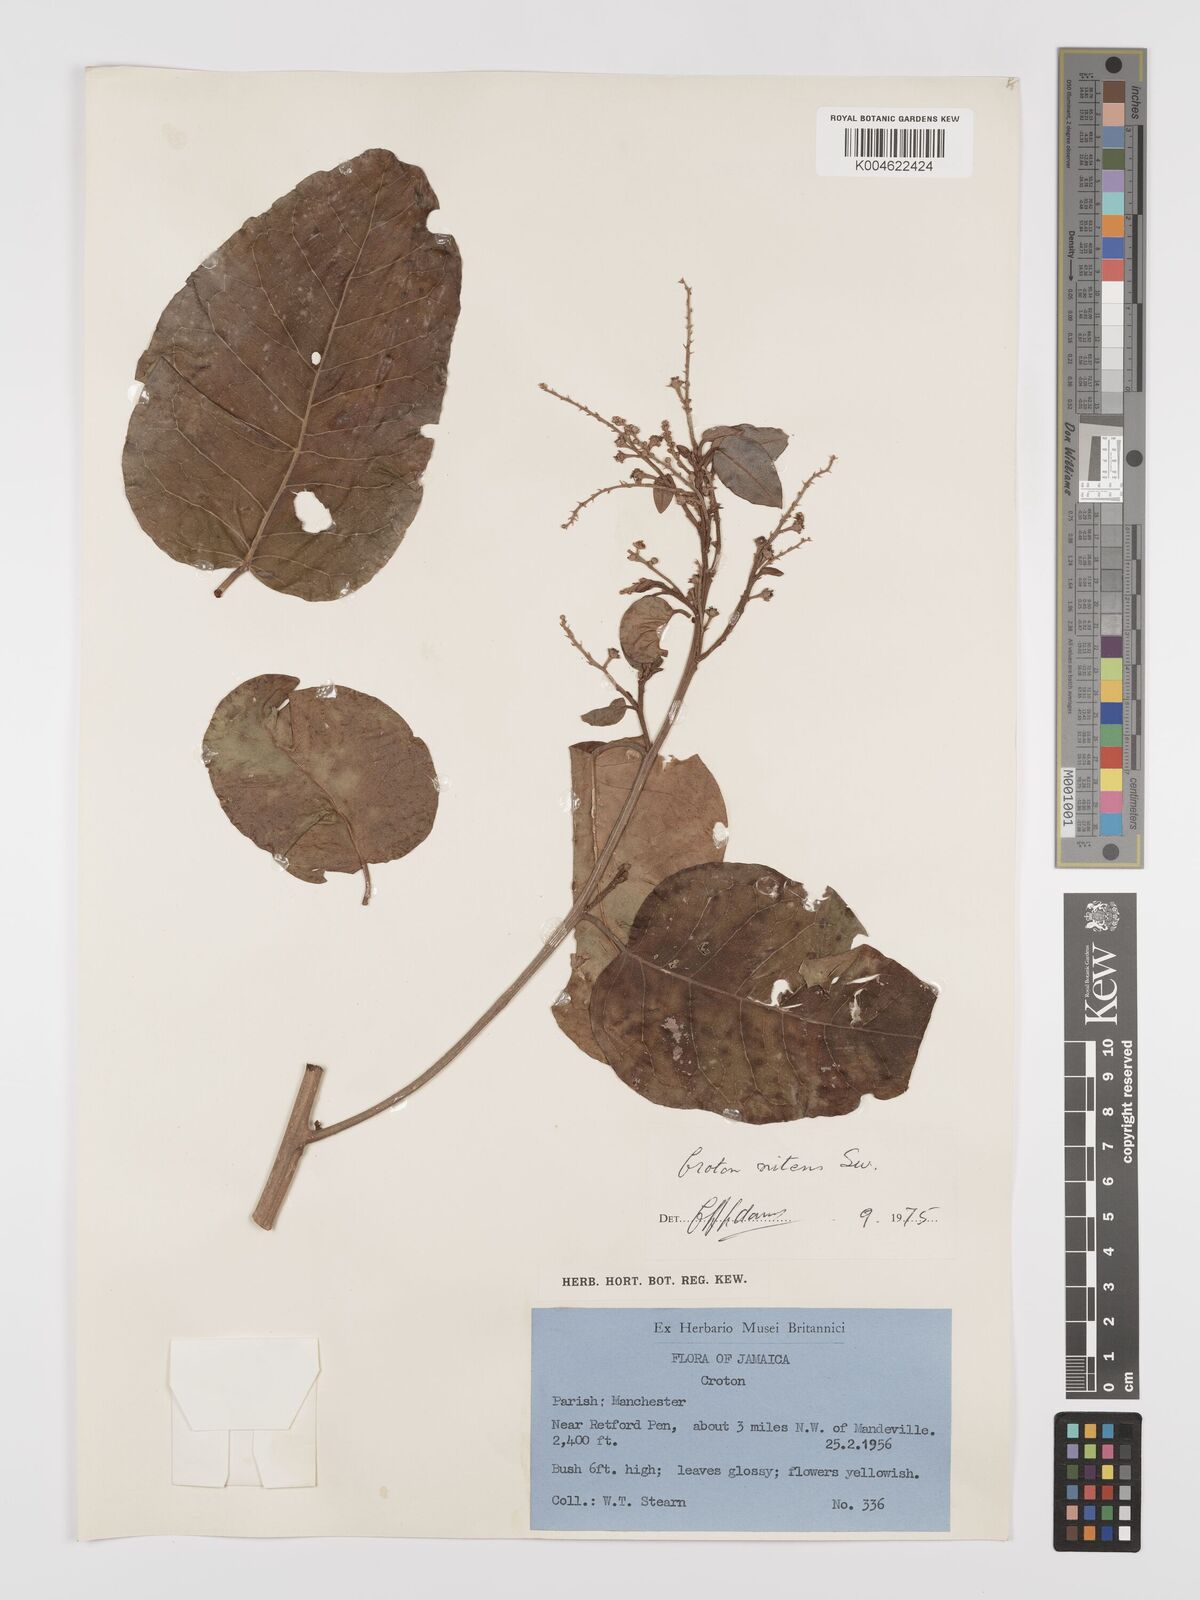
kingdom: Plantae
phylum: Tracheophyta
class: Magnoliopsida
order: Malpighiales
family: Euphorbiaceae
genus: Croton
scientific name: Croton
